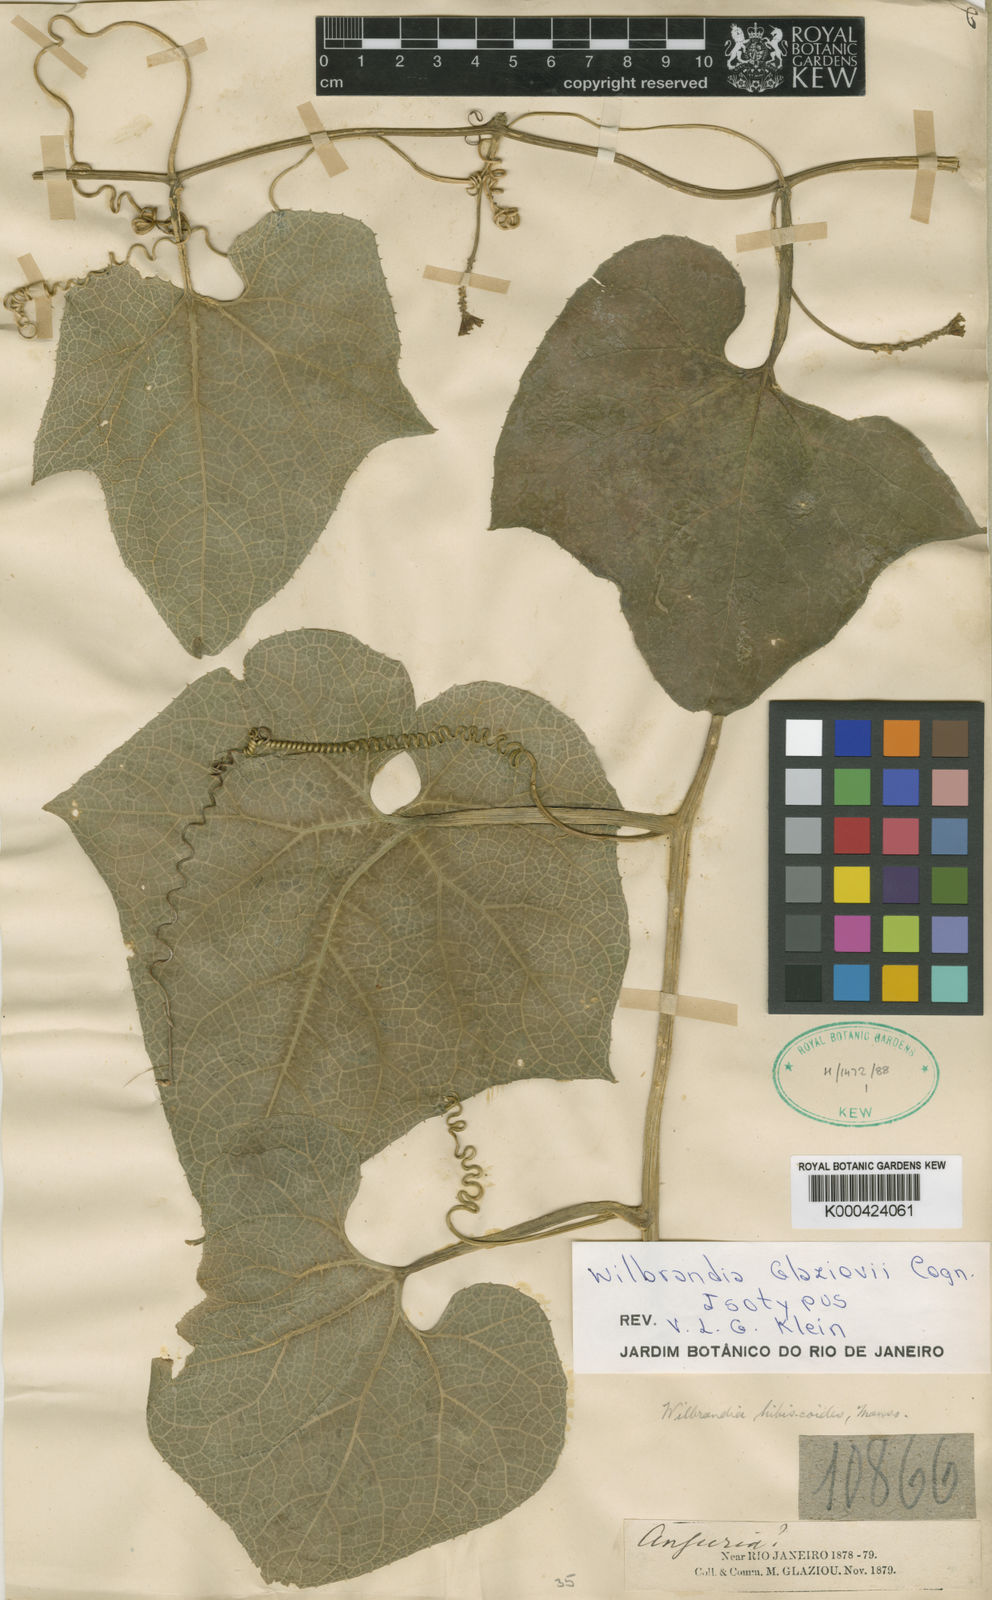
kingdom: Plantae
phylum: Tracheophyta
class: Magnoliopsida
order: Cucurbitales
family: Cucurbitaceae
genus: Wilbrandia
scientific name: Wilbrandia glaziovii
